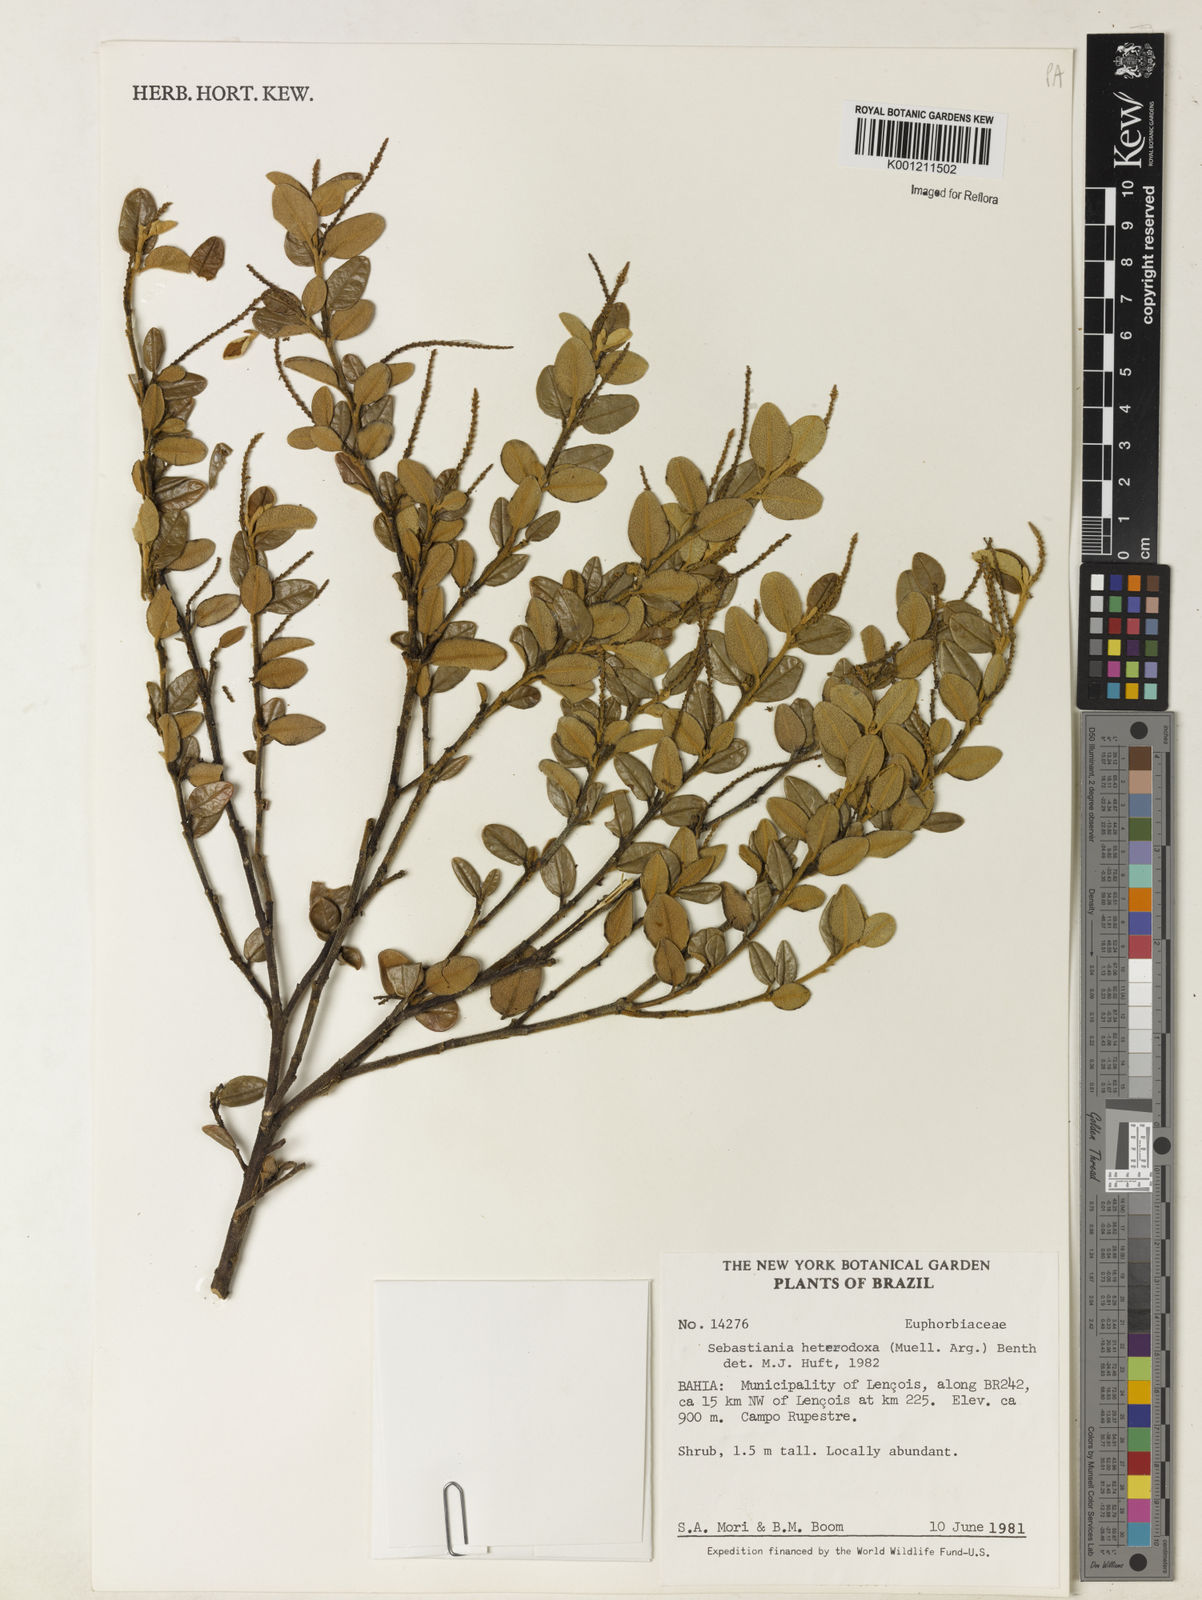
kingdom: Plantae
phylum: Tracheophyta
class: Magnoliopsida
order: Malpighiales
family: Euphorbiaceae
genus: Microstachys
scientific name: Microstachys
